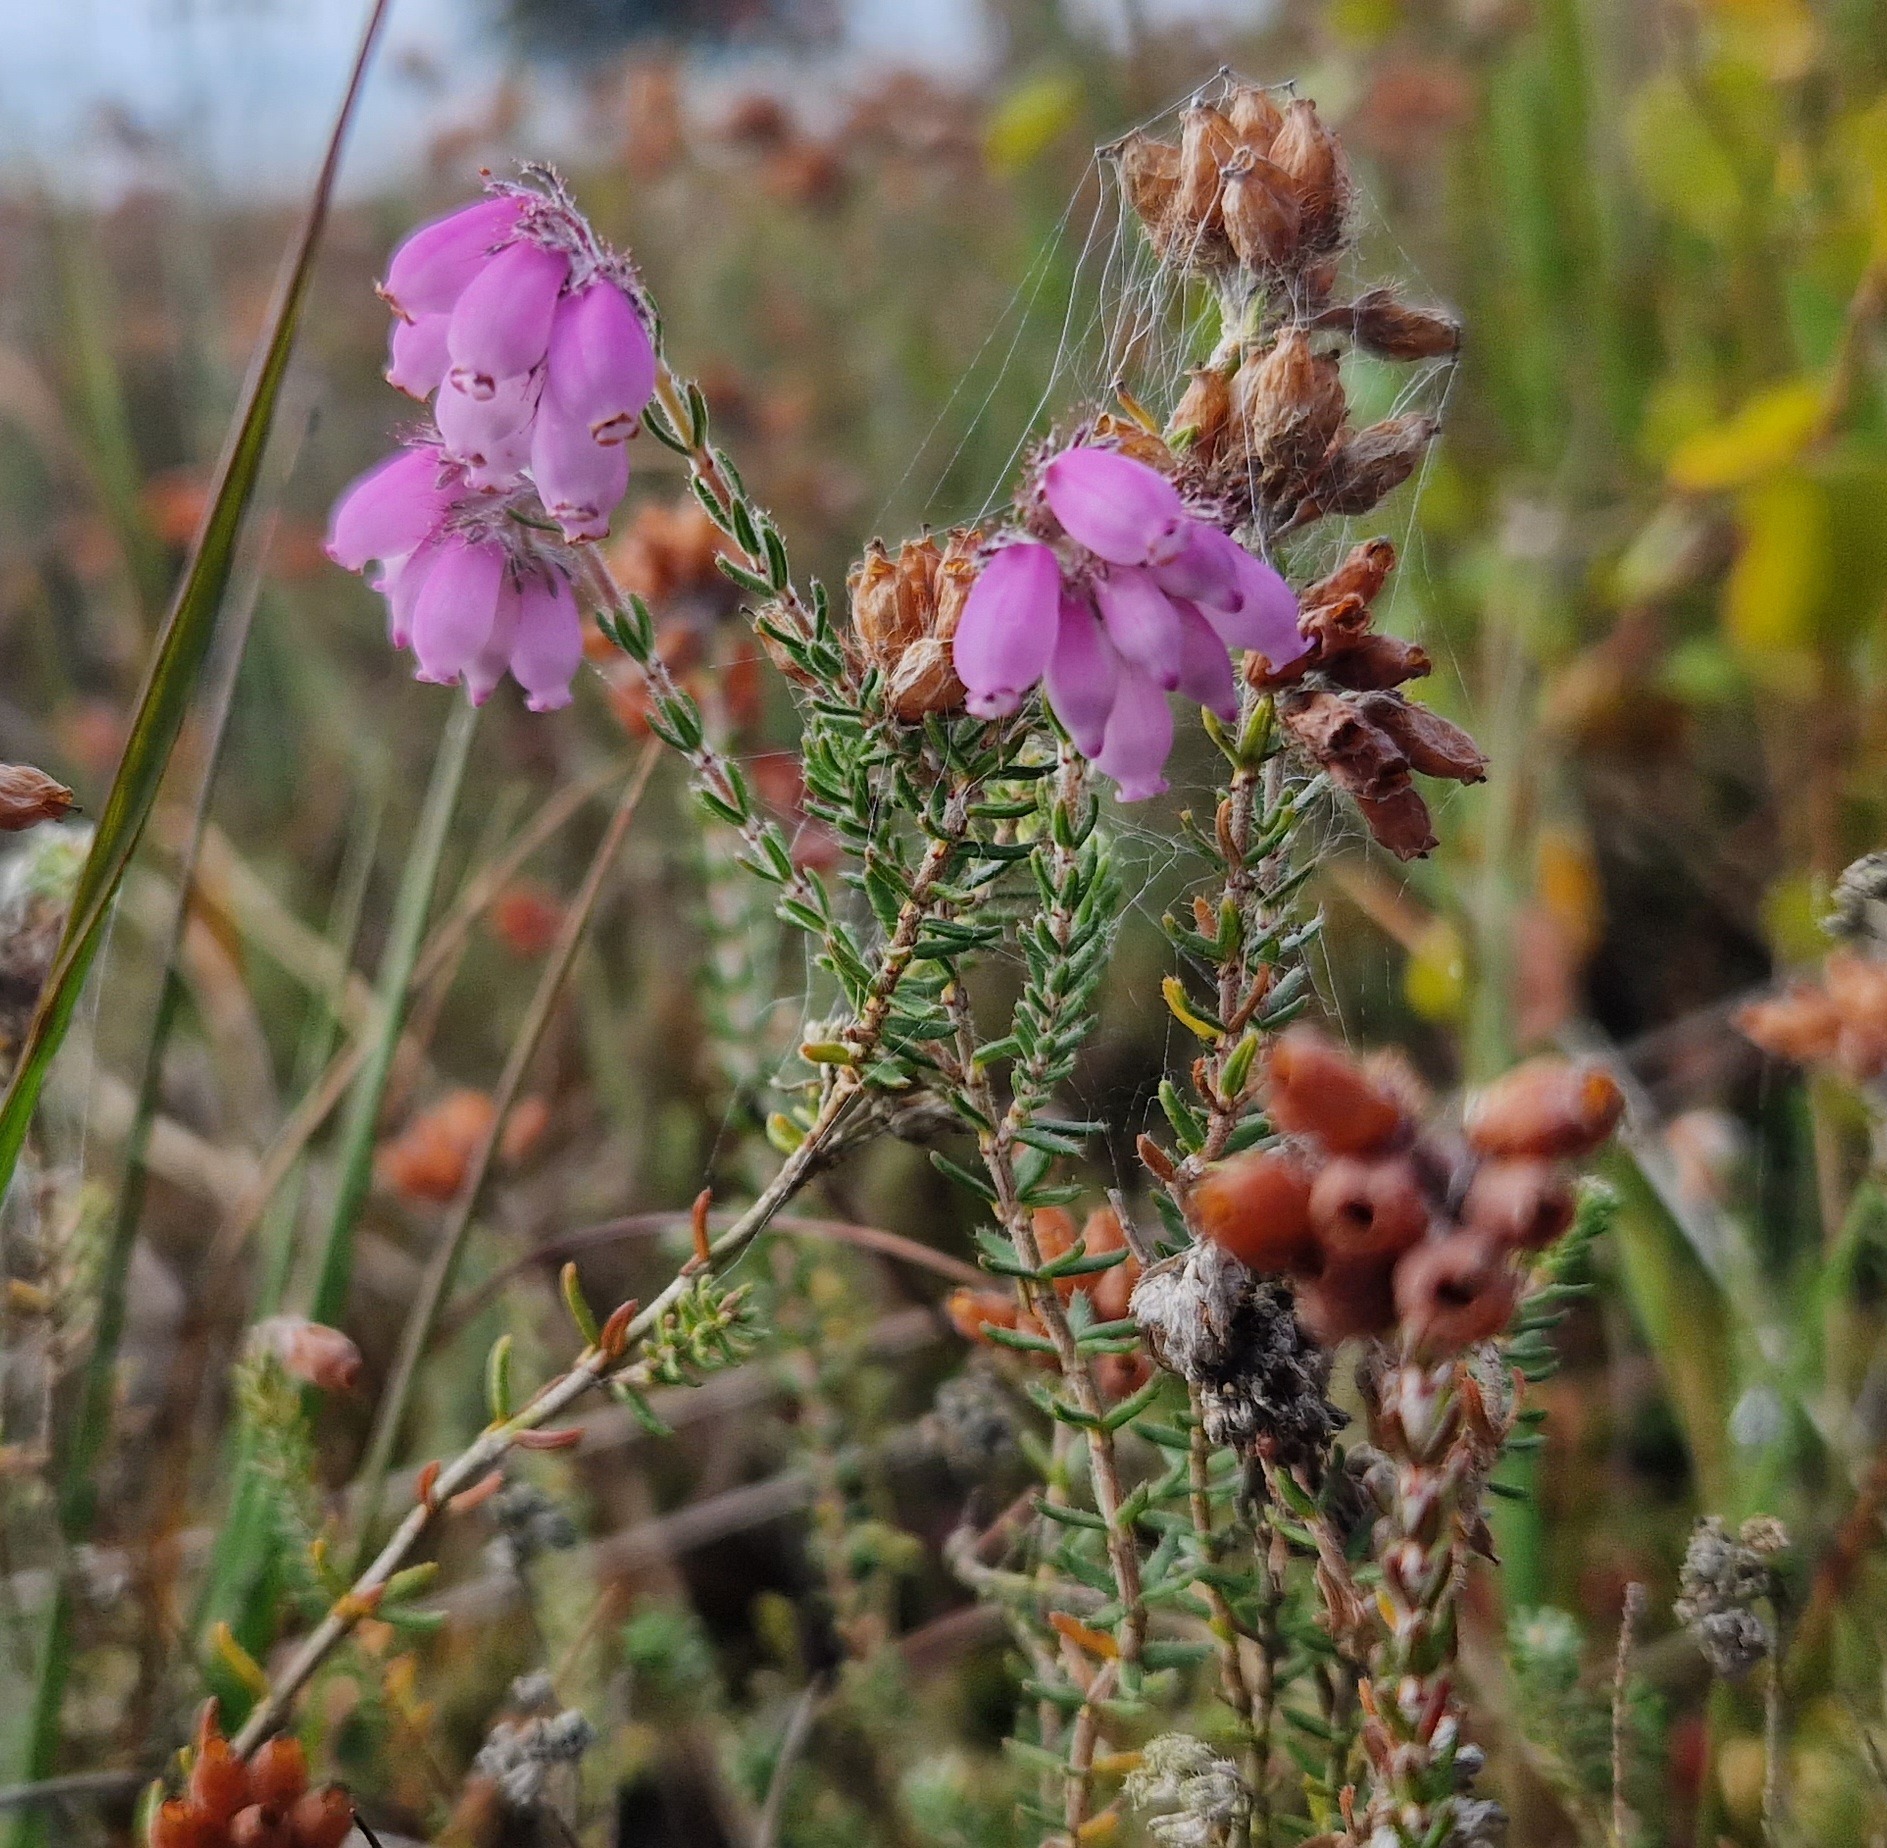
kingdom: Plantae
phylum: Tracheophyta
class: Magnoliopsida
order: Ericales
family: Ericaceae
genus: Erica
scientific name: Erica tetralix
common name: Klokkelyng
